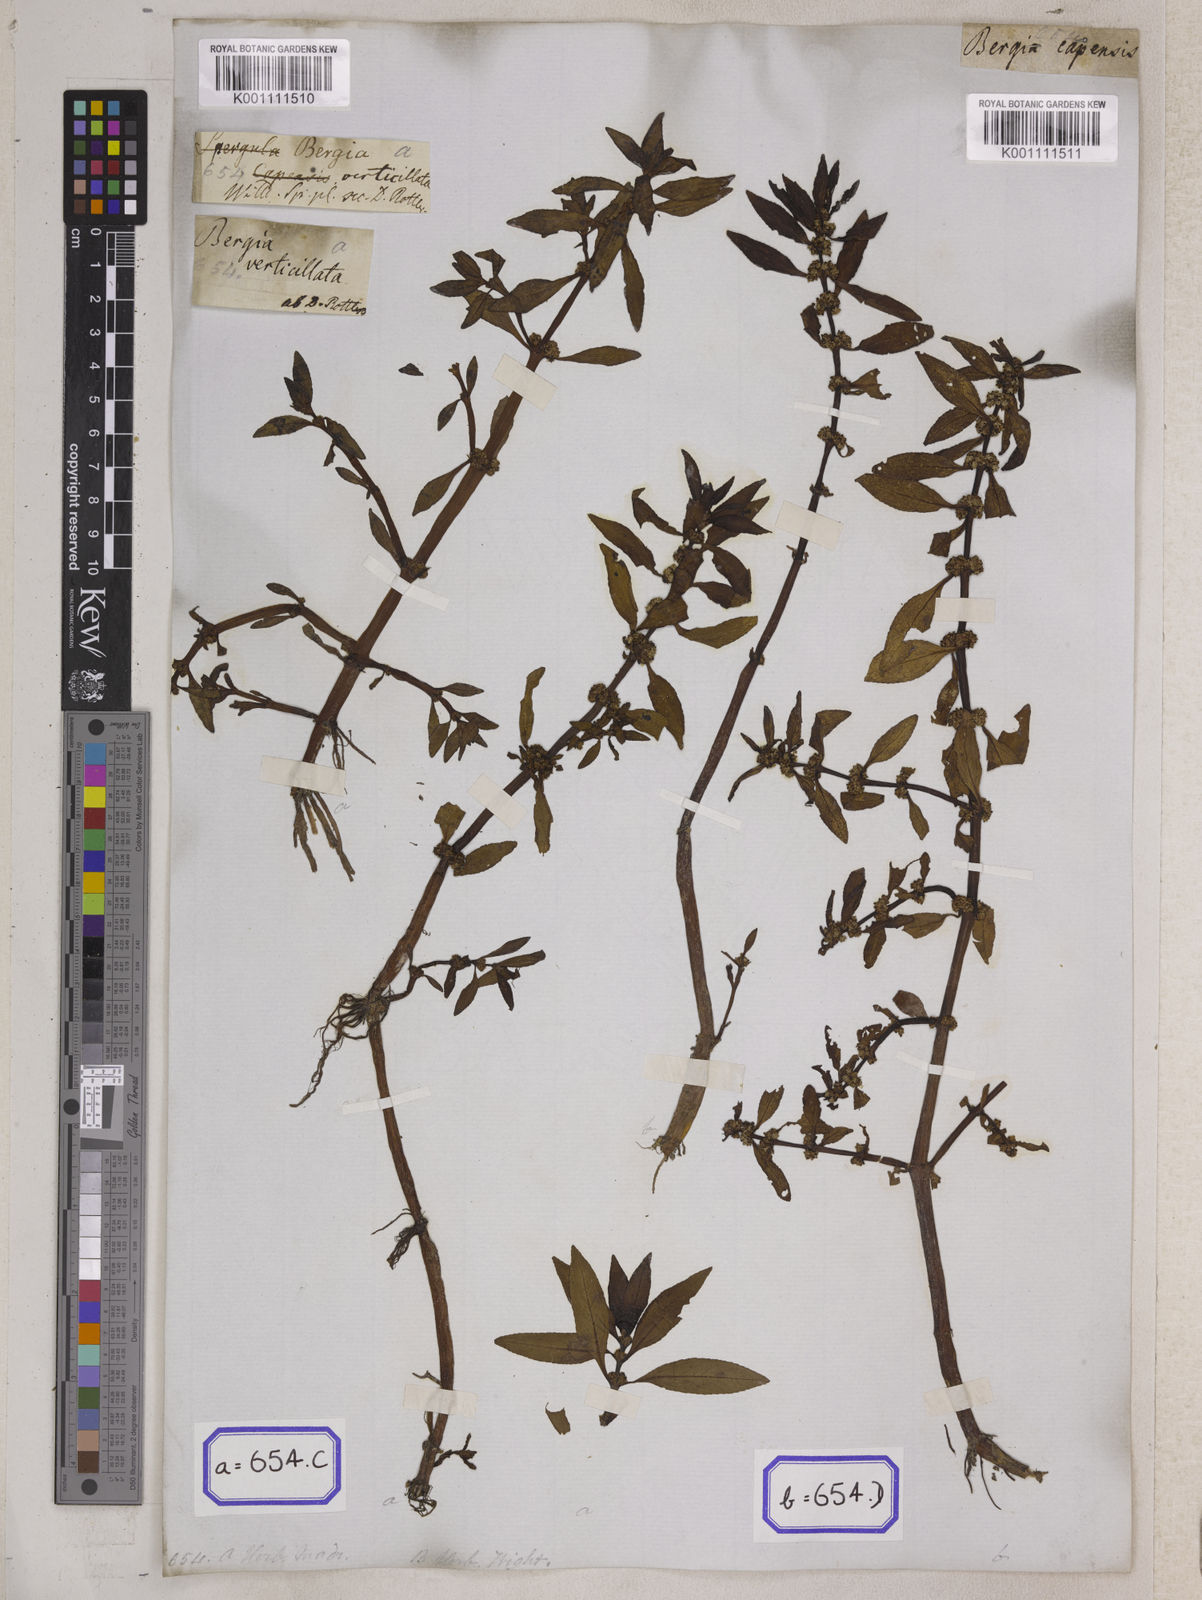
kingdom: Plantae
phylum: Tracheophyta
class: Magnoliopsida
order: Malpighiales
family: Elatinaceae
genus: Bergia
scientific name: Bergia
